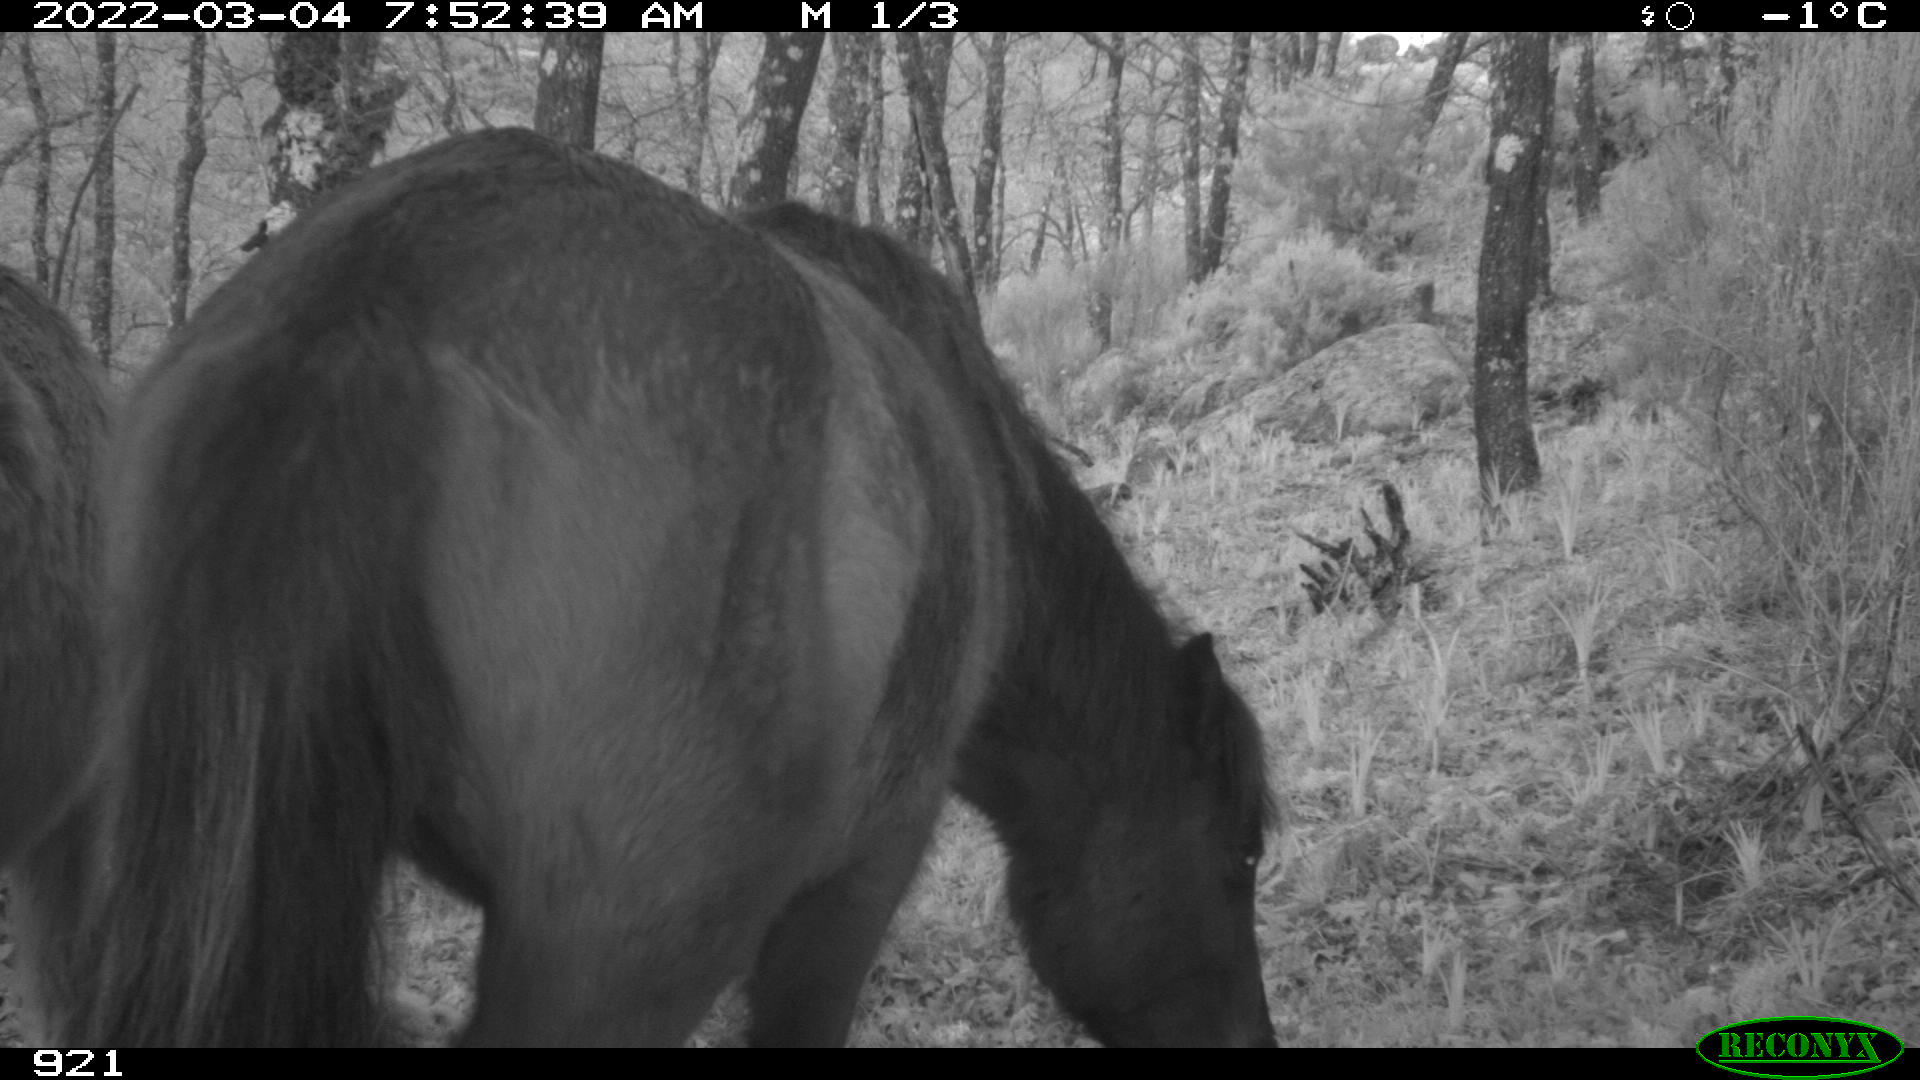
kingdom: Animalia
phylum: Chordata
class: Mammalia
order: Perissodactyla
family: Equidae
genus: Equus
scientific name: Equus caballus
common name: Horse
